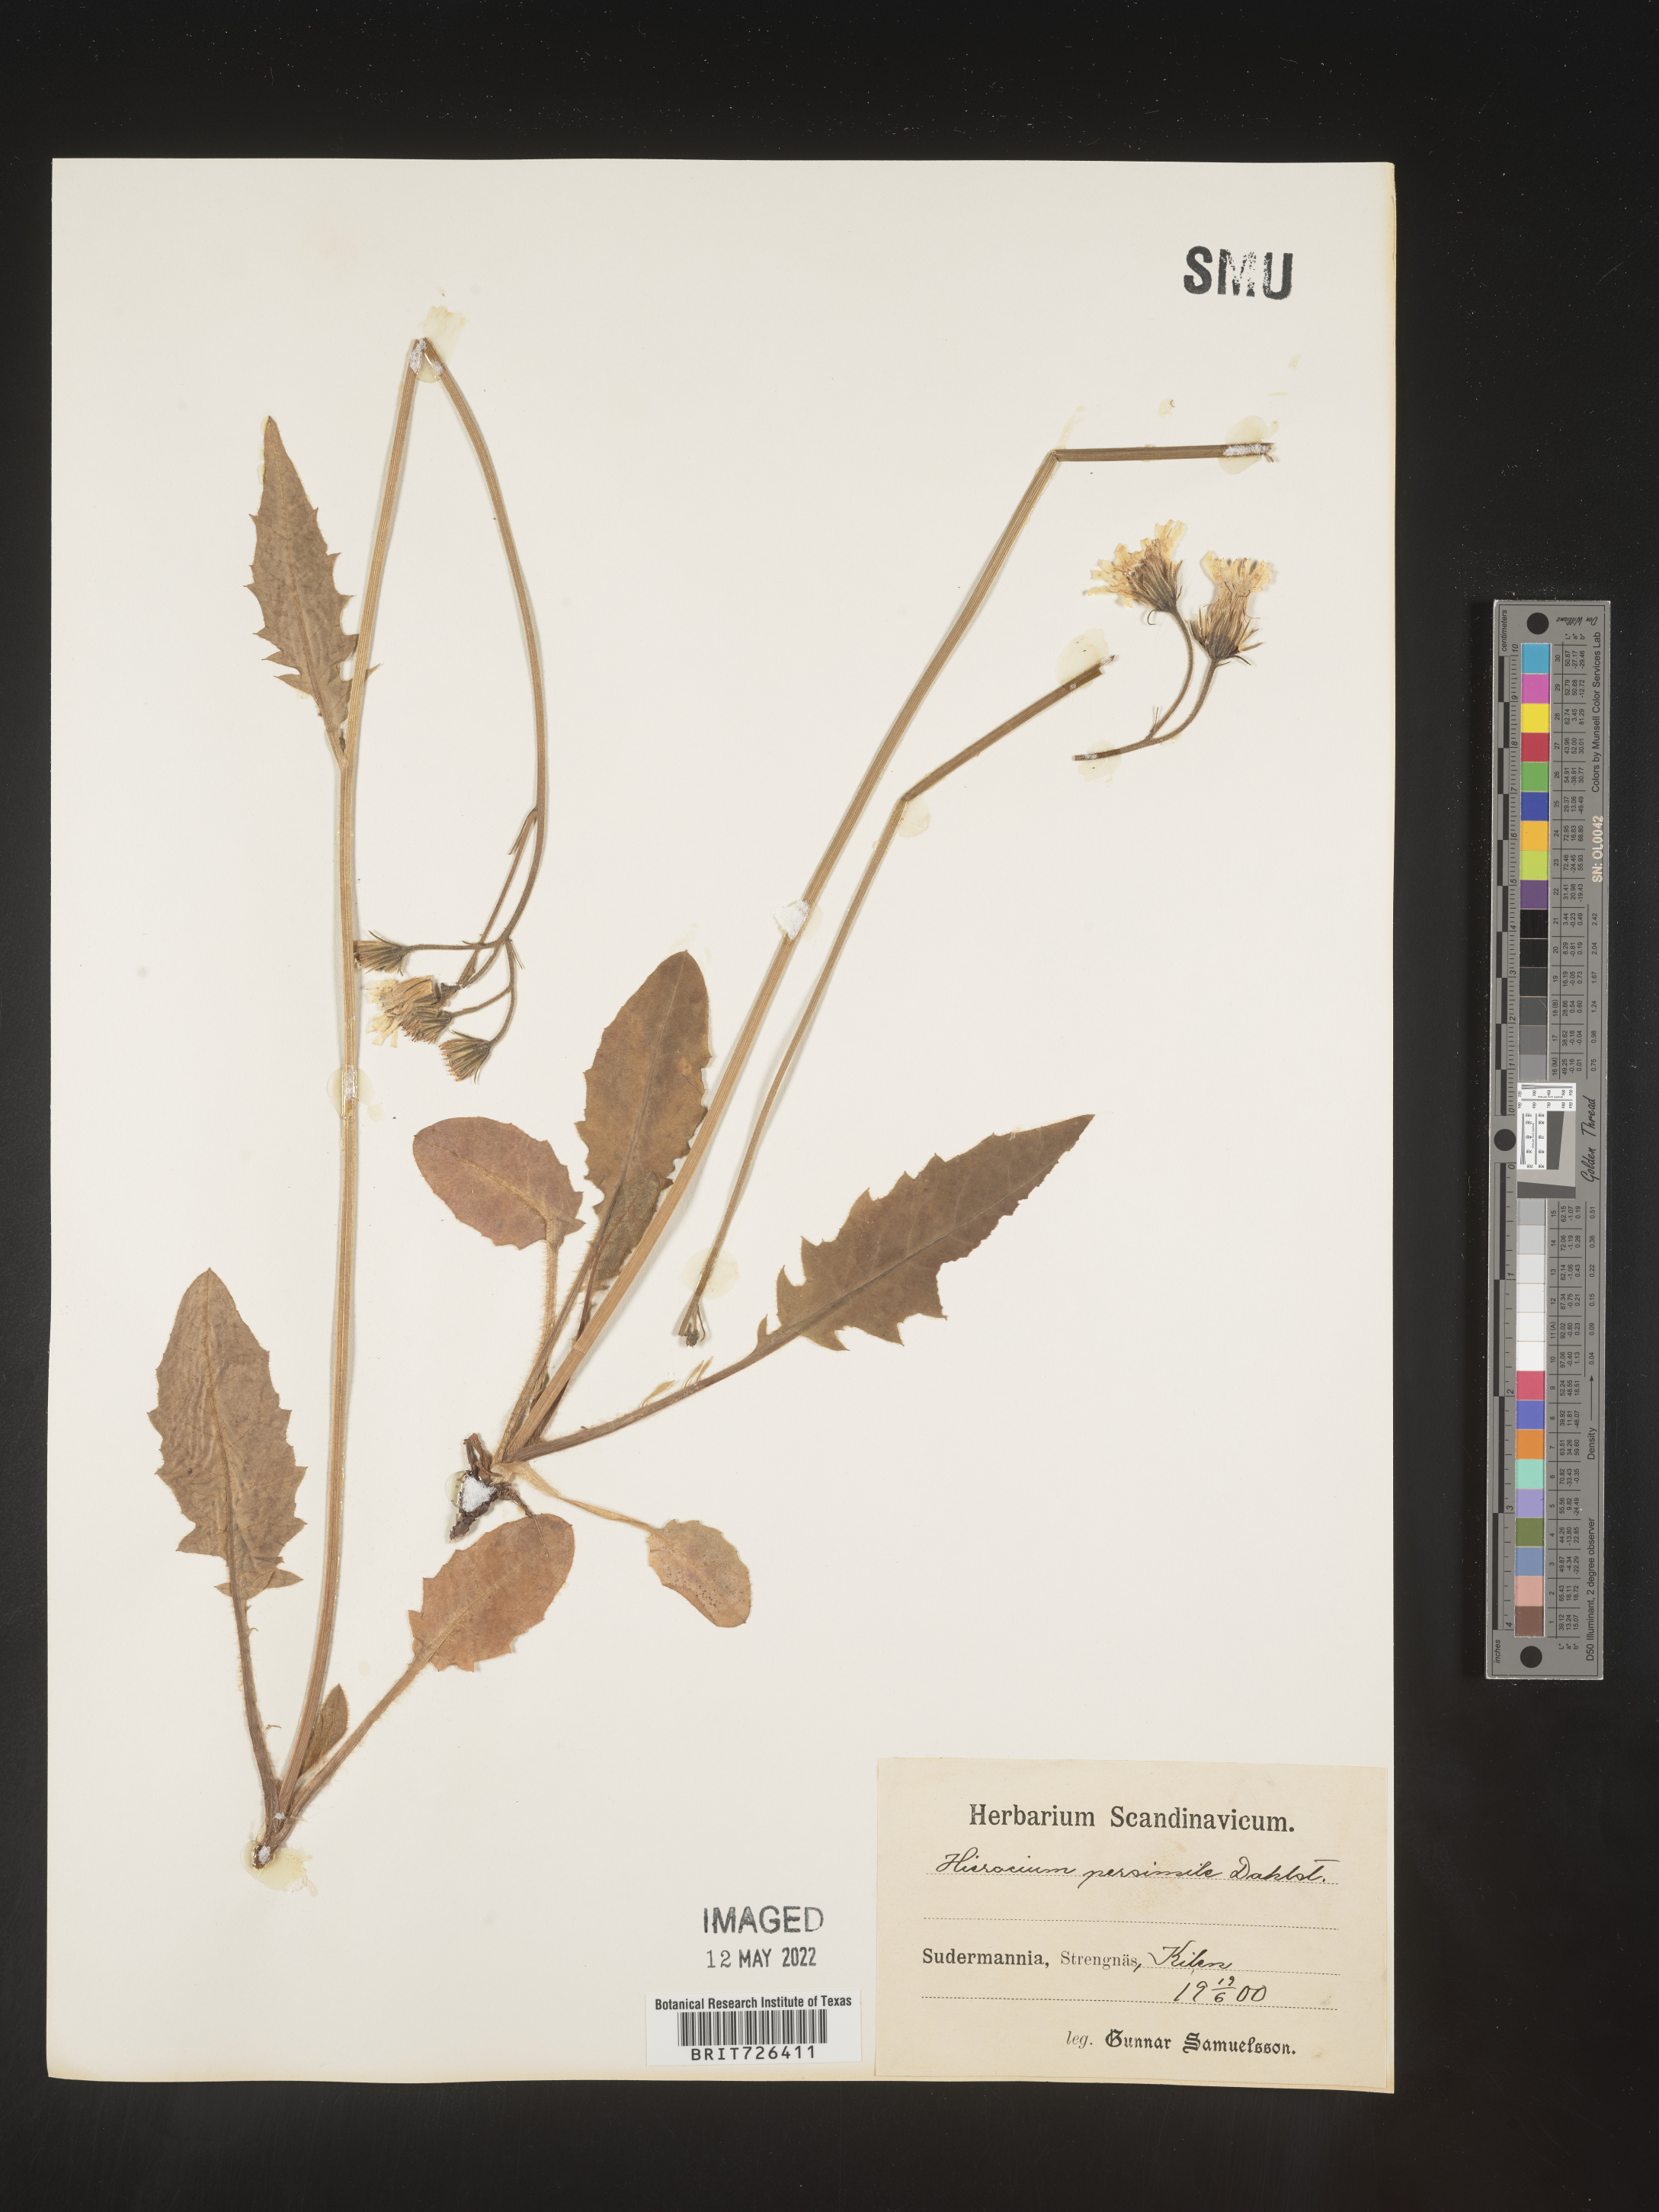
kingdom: Plantae
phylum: Tracheophyta
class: Magnoliopsida
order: Asterales
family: Asteraceae
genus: Hieracium
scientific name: Hieracium
